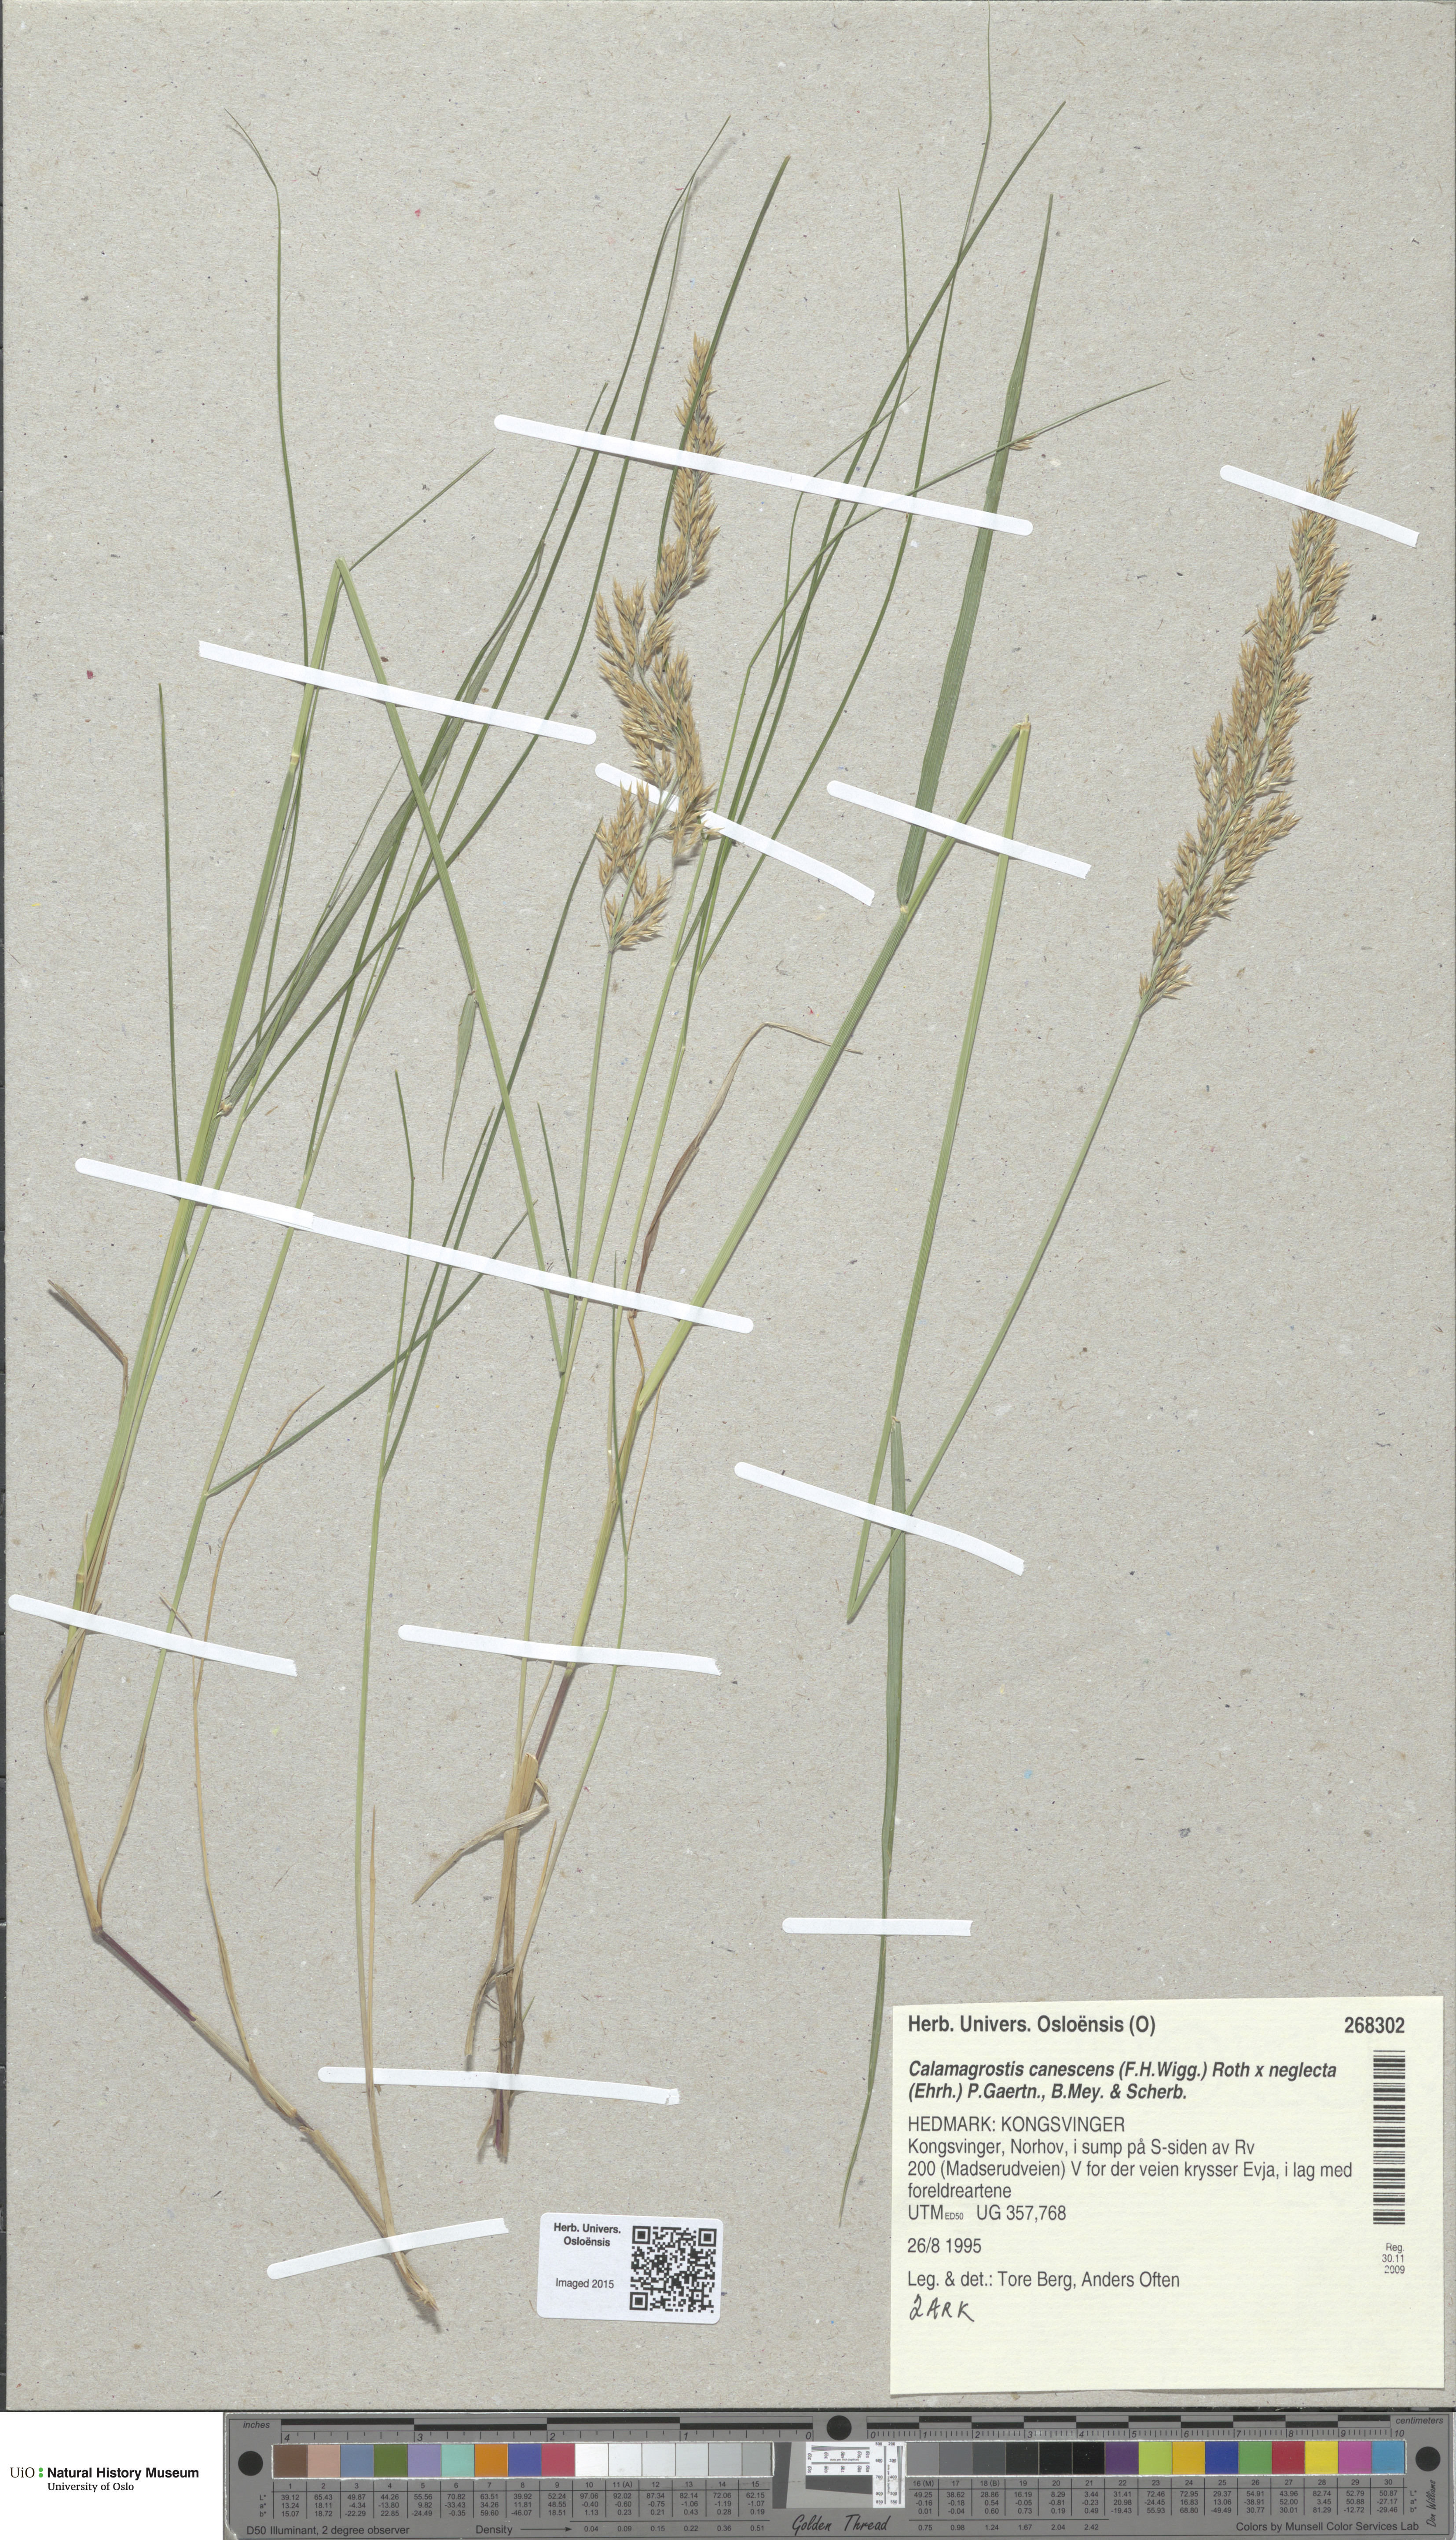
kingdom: Plantae
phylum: Tracheophyta
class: Liliopsida
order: Poales
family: Poaceae
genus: Calamagrostis
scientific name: Calamagrostis
